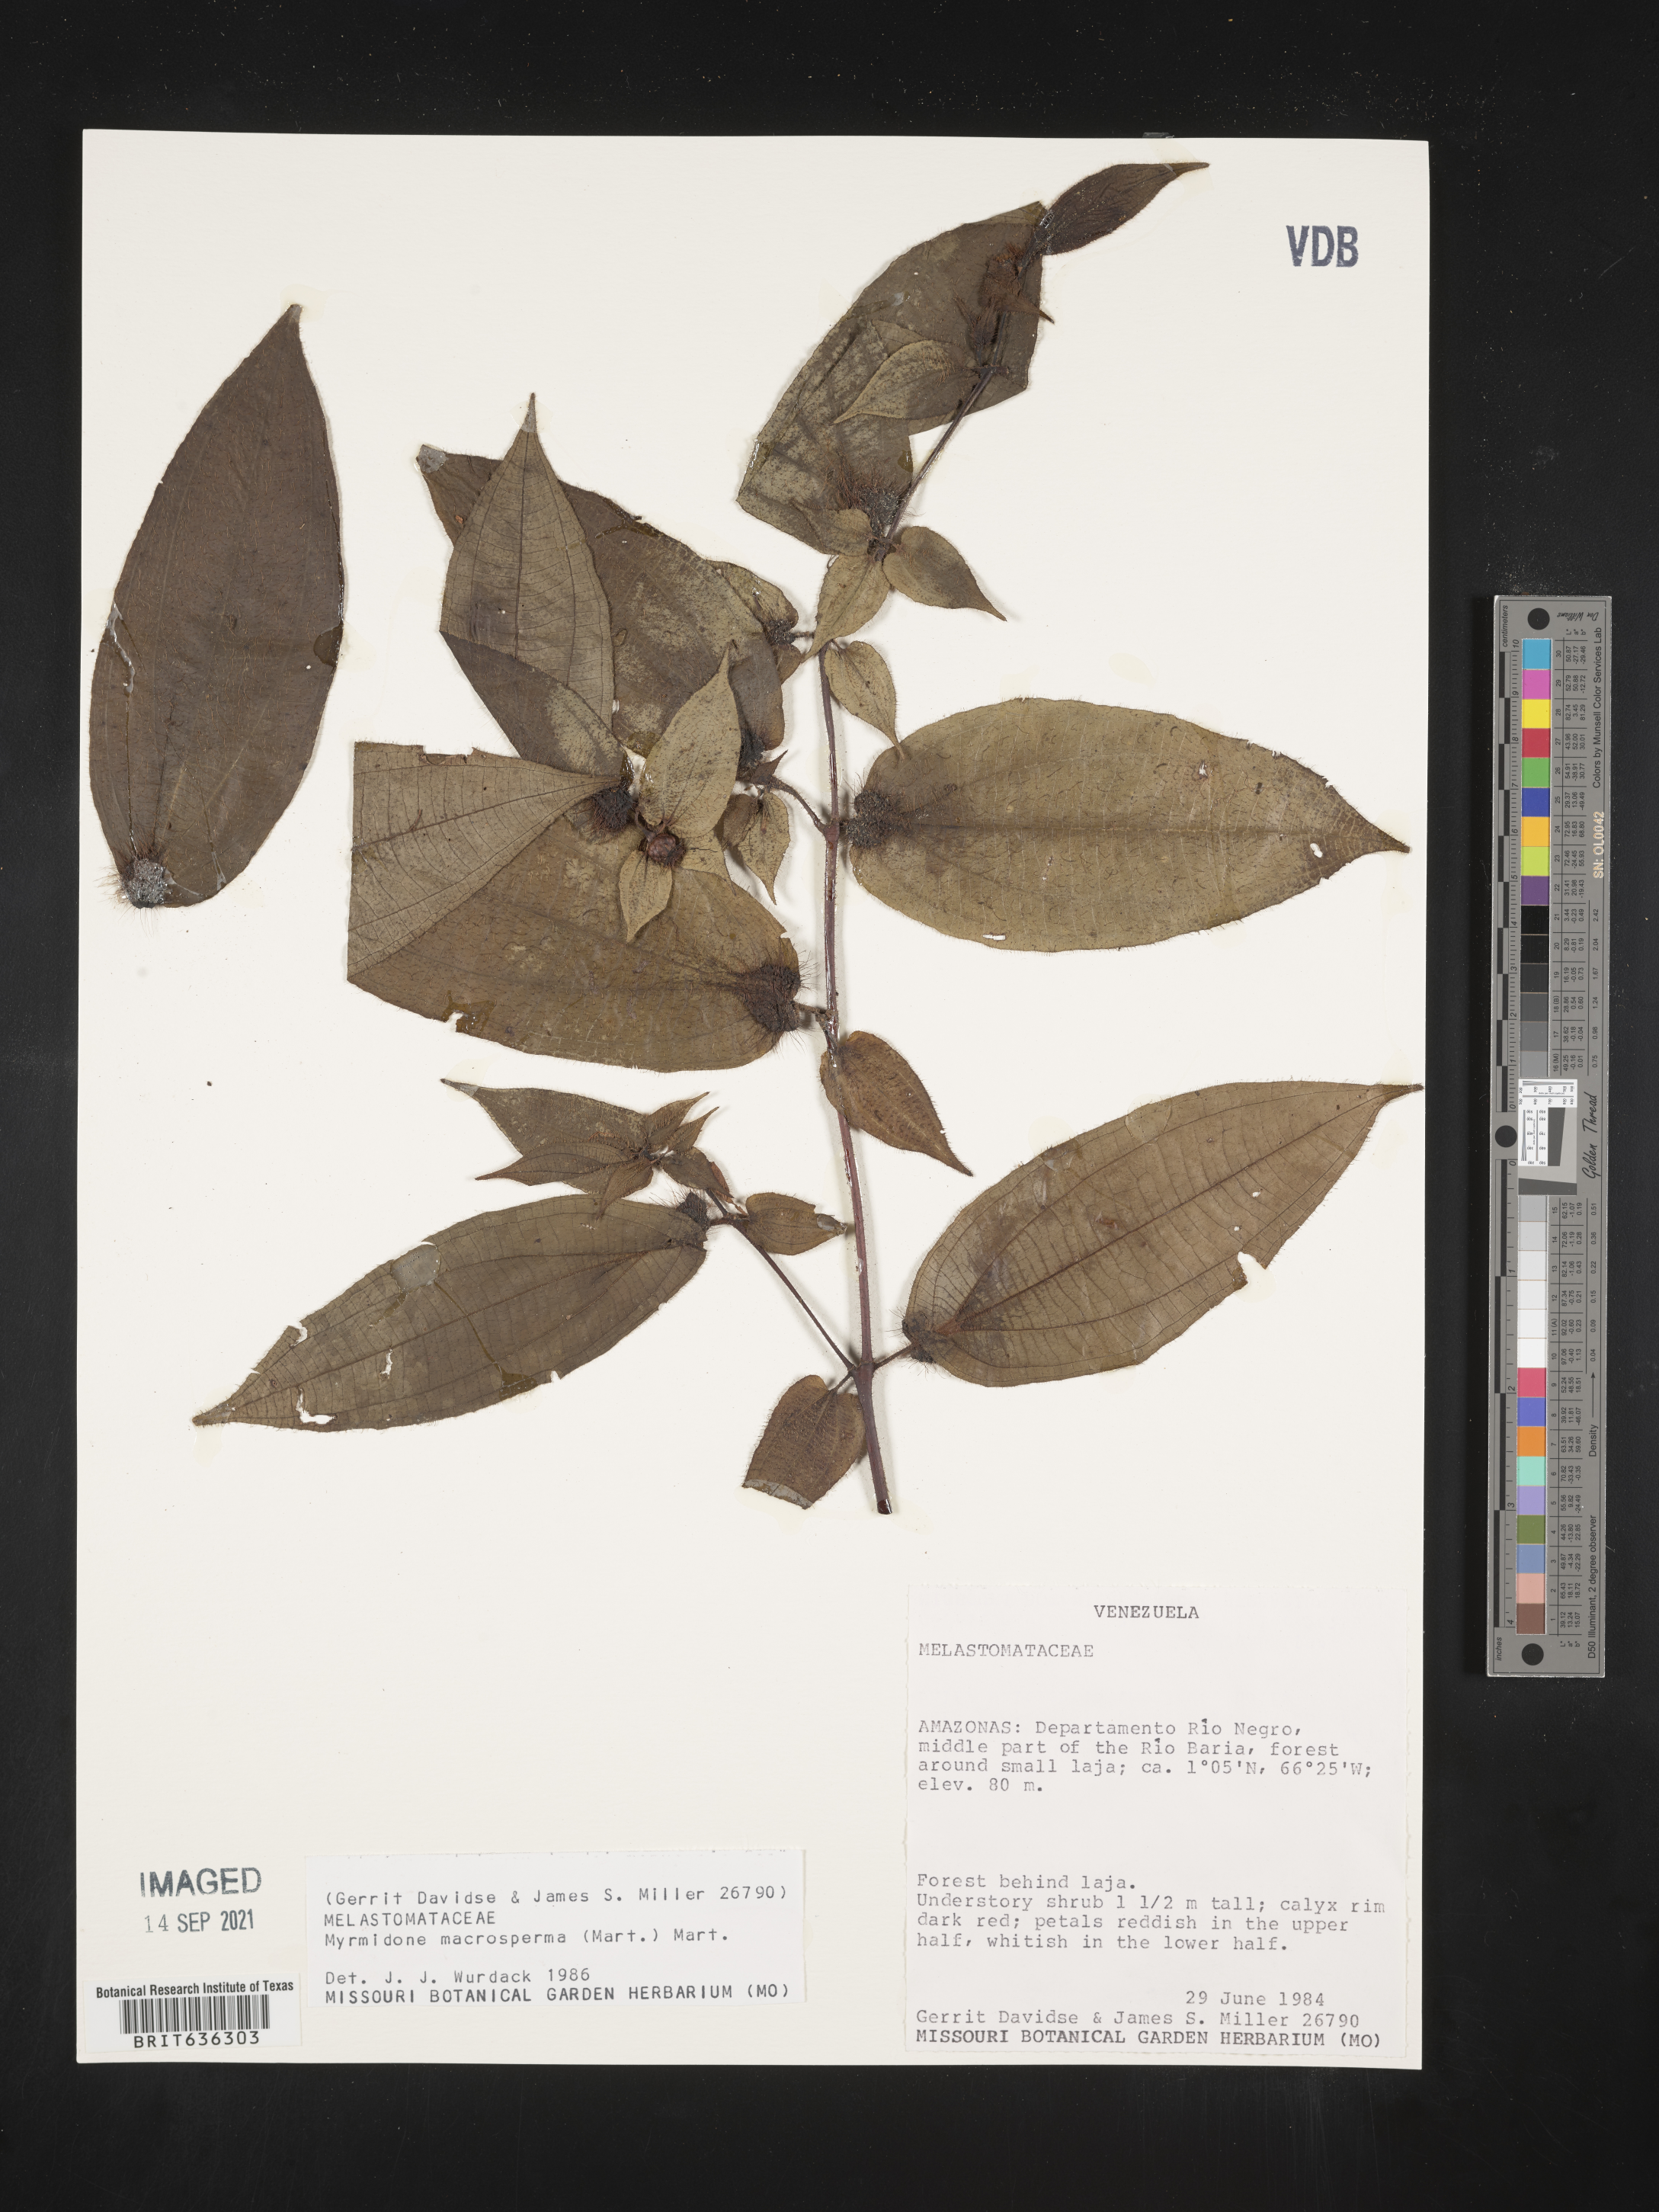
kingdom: Plantae
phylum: Tracheophyta
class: Magnoliopsida
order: Myrtales
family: Melastomataceae
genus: Myrmidone
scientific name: Myrmidone
